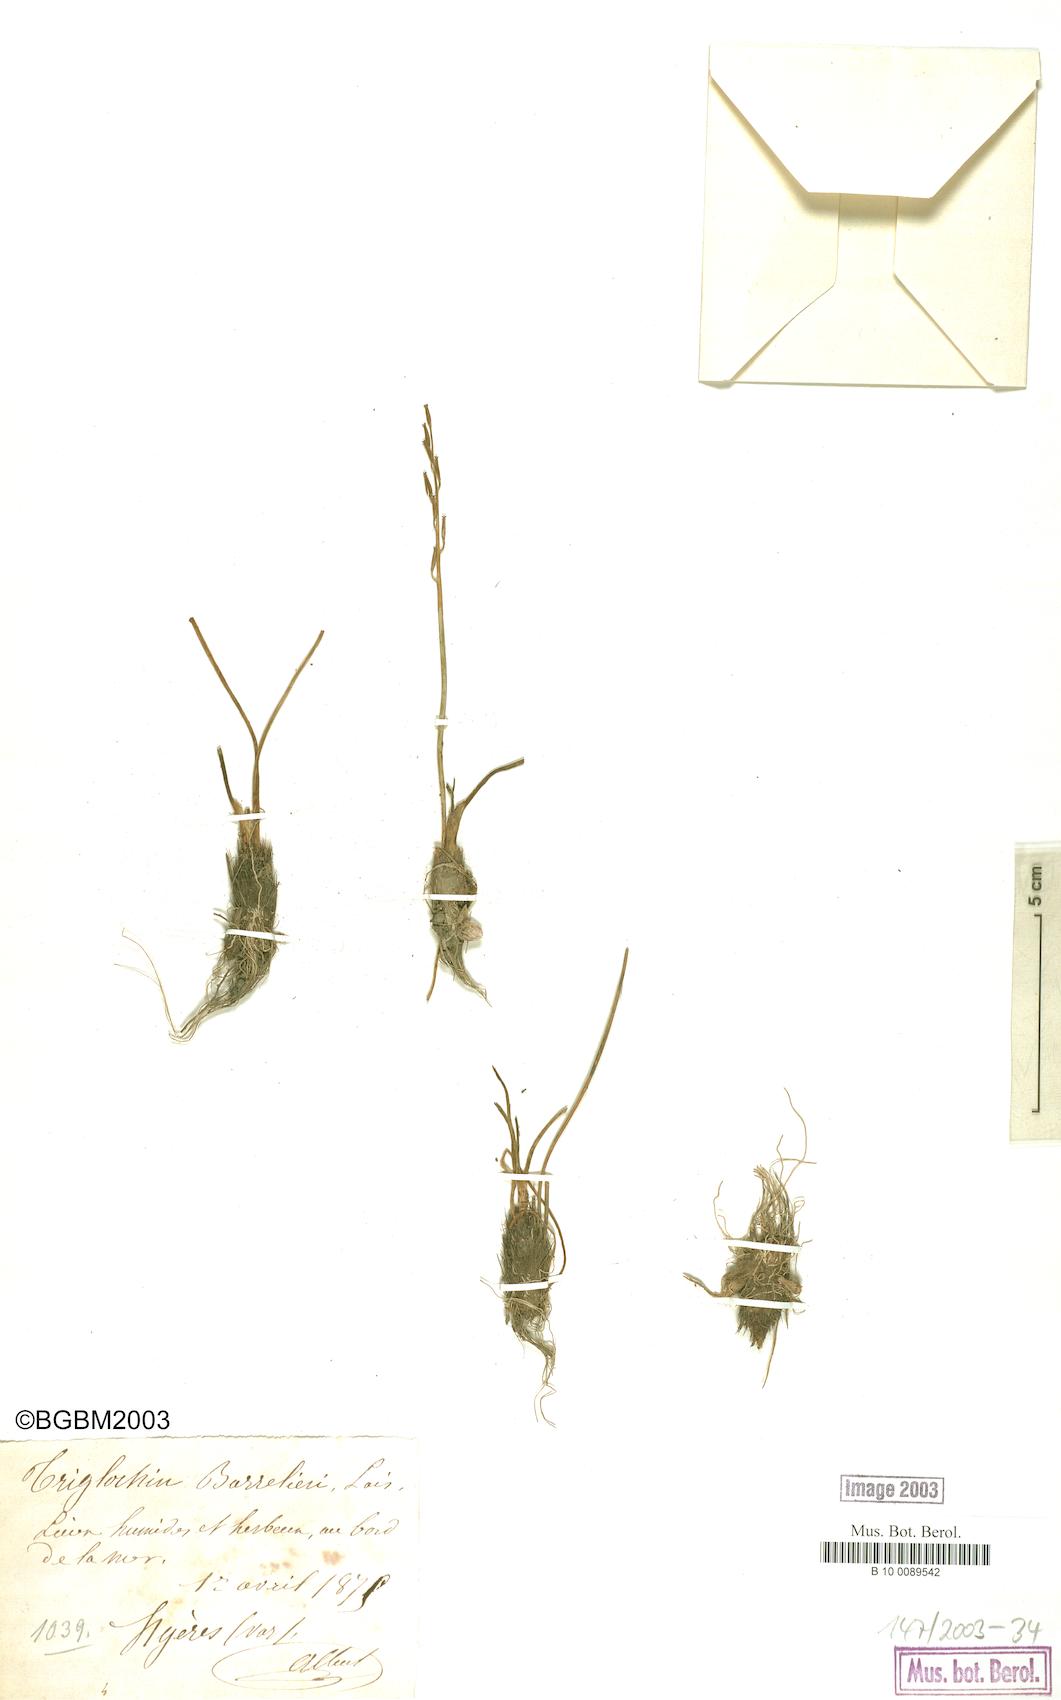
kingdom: Plantae
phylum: Tracheophyta
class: Liliopsida
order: Alismatales
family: Juncaginaceae
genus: Triglochin
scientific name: Triglochin bulbosa
